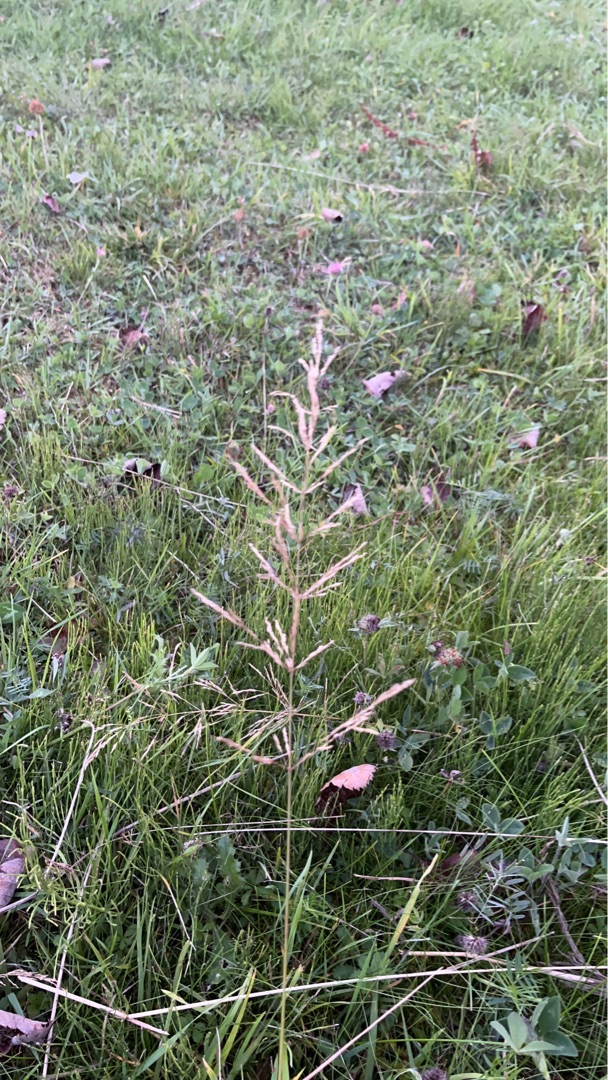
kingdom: Plantae
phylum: Tracheophyta
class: Liliopsida
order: Poales
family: Poaceae
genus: Agrostis
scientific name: Agrostis gigantea
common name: Stortoppet hvene
